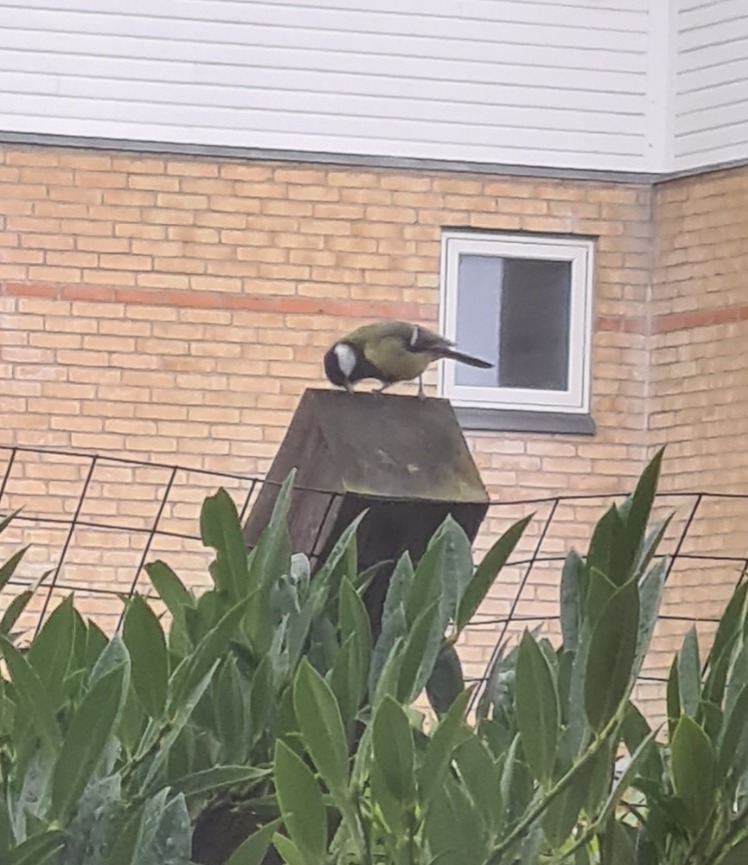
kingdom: Animalia
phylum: Chordata
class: Aves
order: Passeriformes
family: Paridae
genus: Parus
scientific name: Parus major
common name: Musvit
